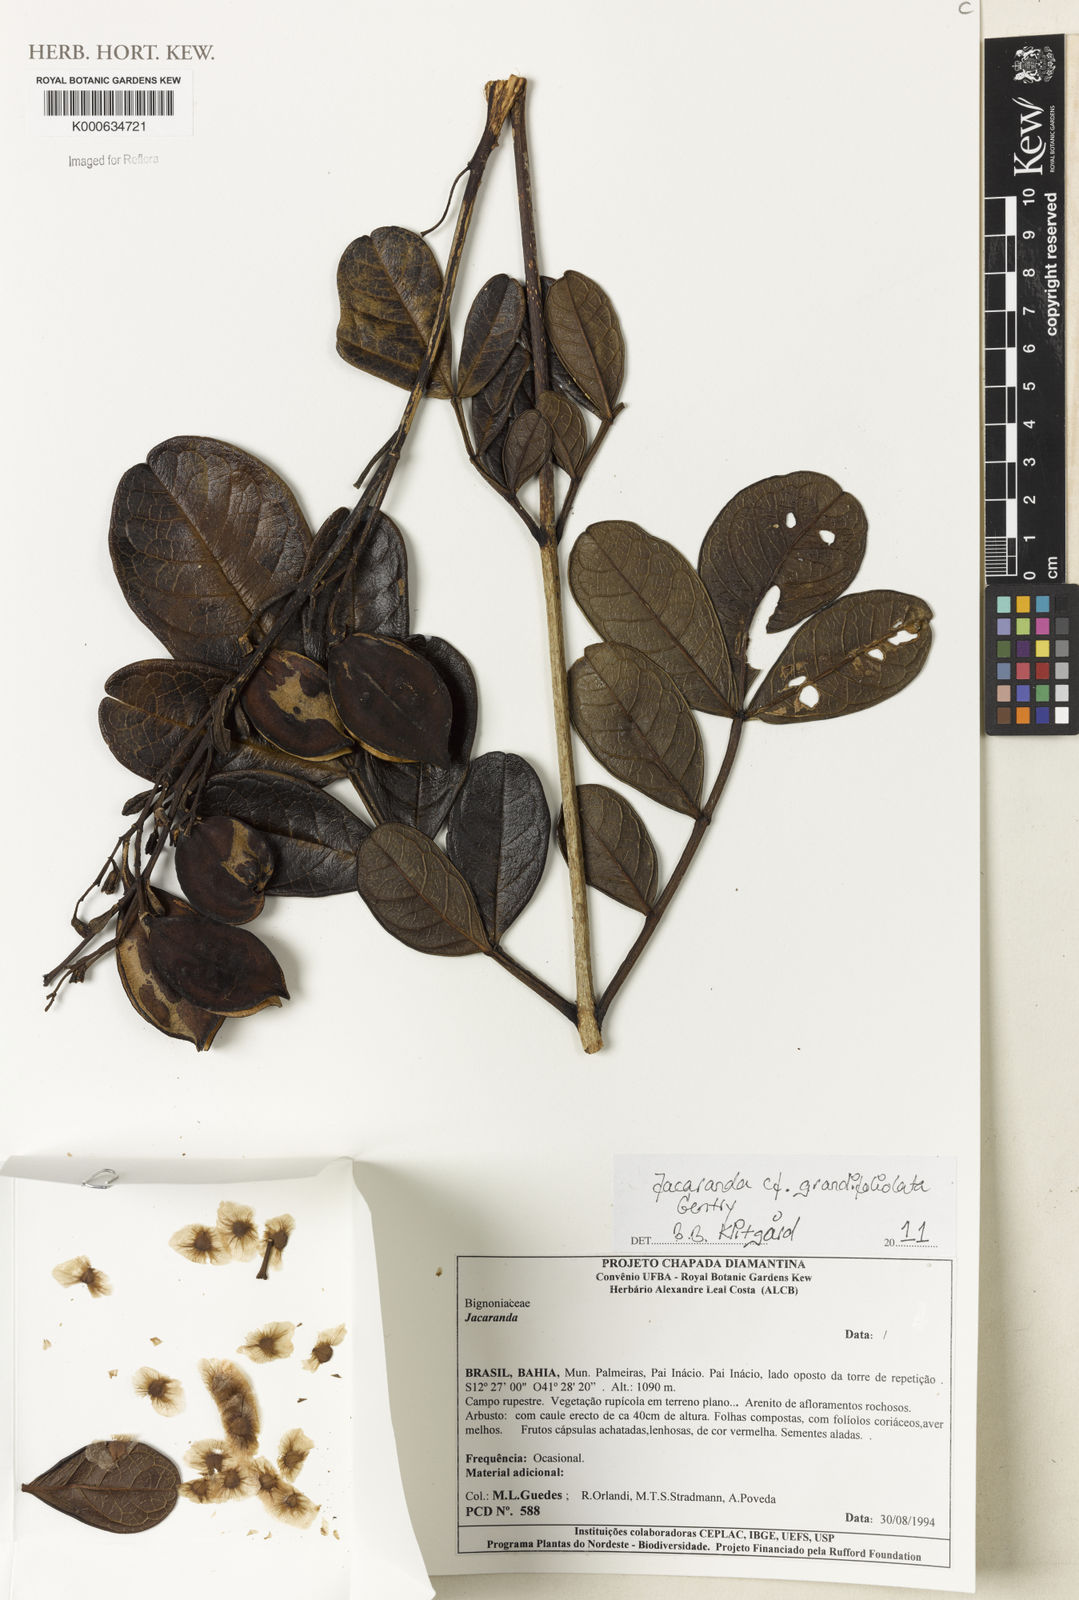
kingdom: Plantae
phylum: Tracheophyta
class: Magnoliopsida
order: Lamiales
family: Bignoniaceae
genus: Jacaranda
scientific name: Jacaranda grandifoliolata
